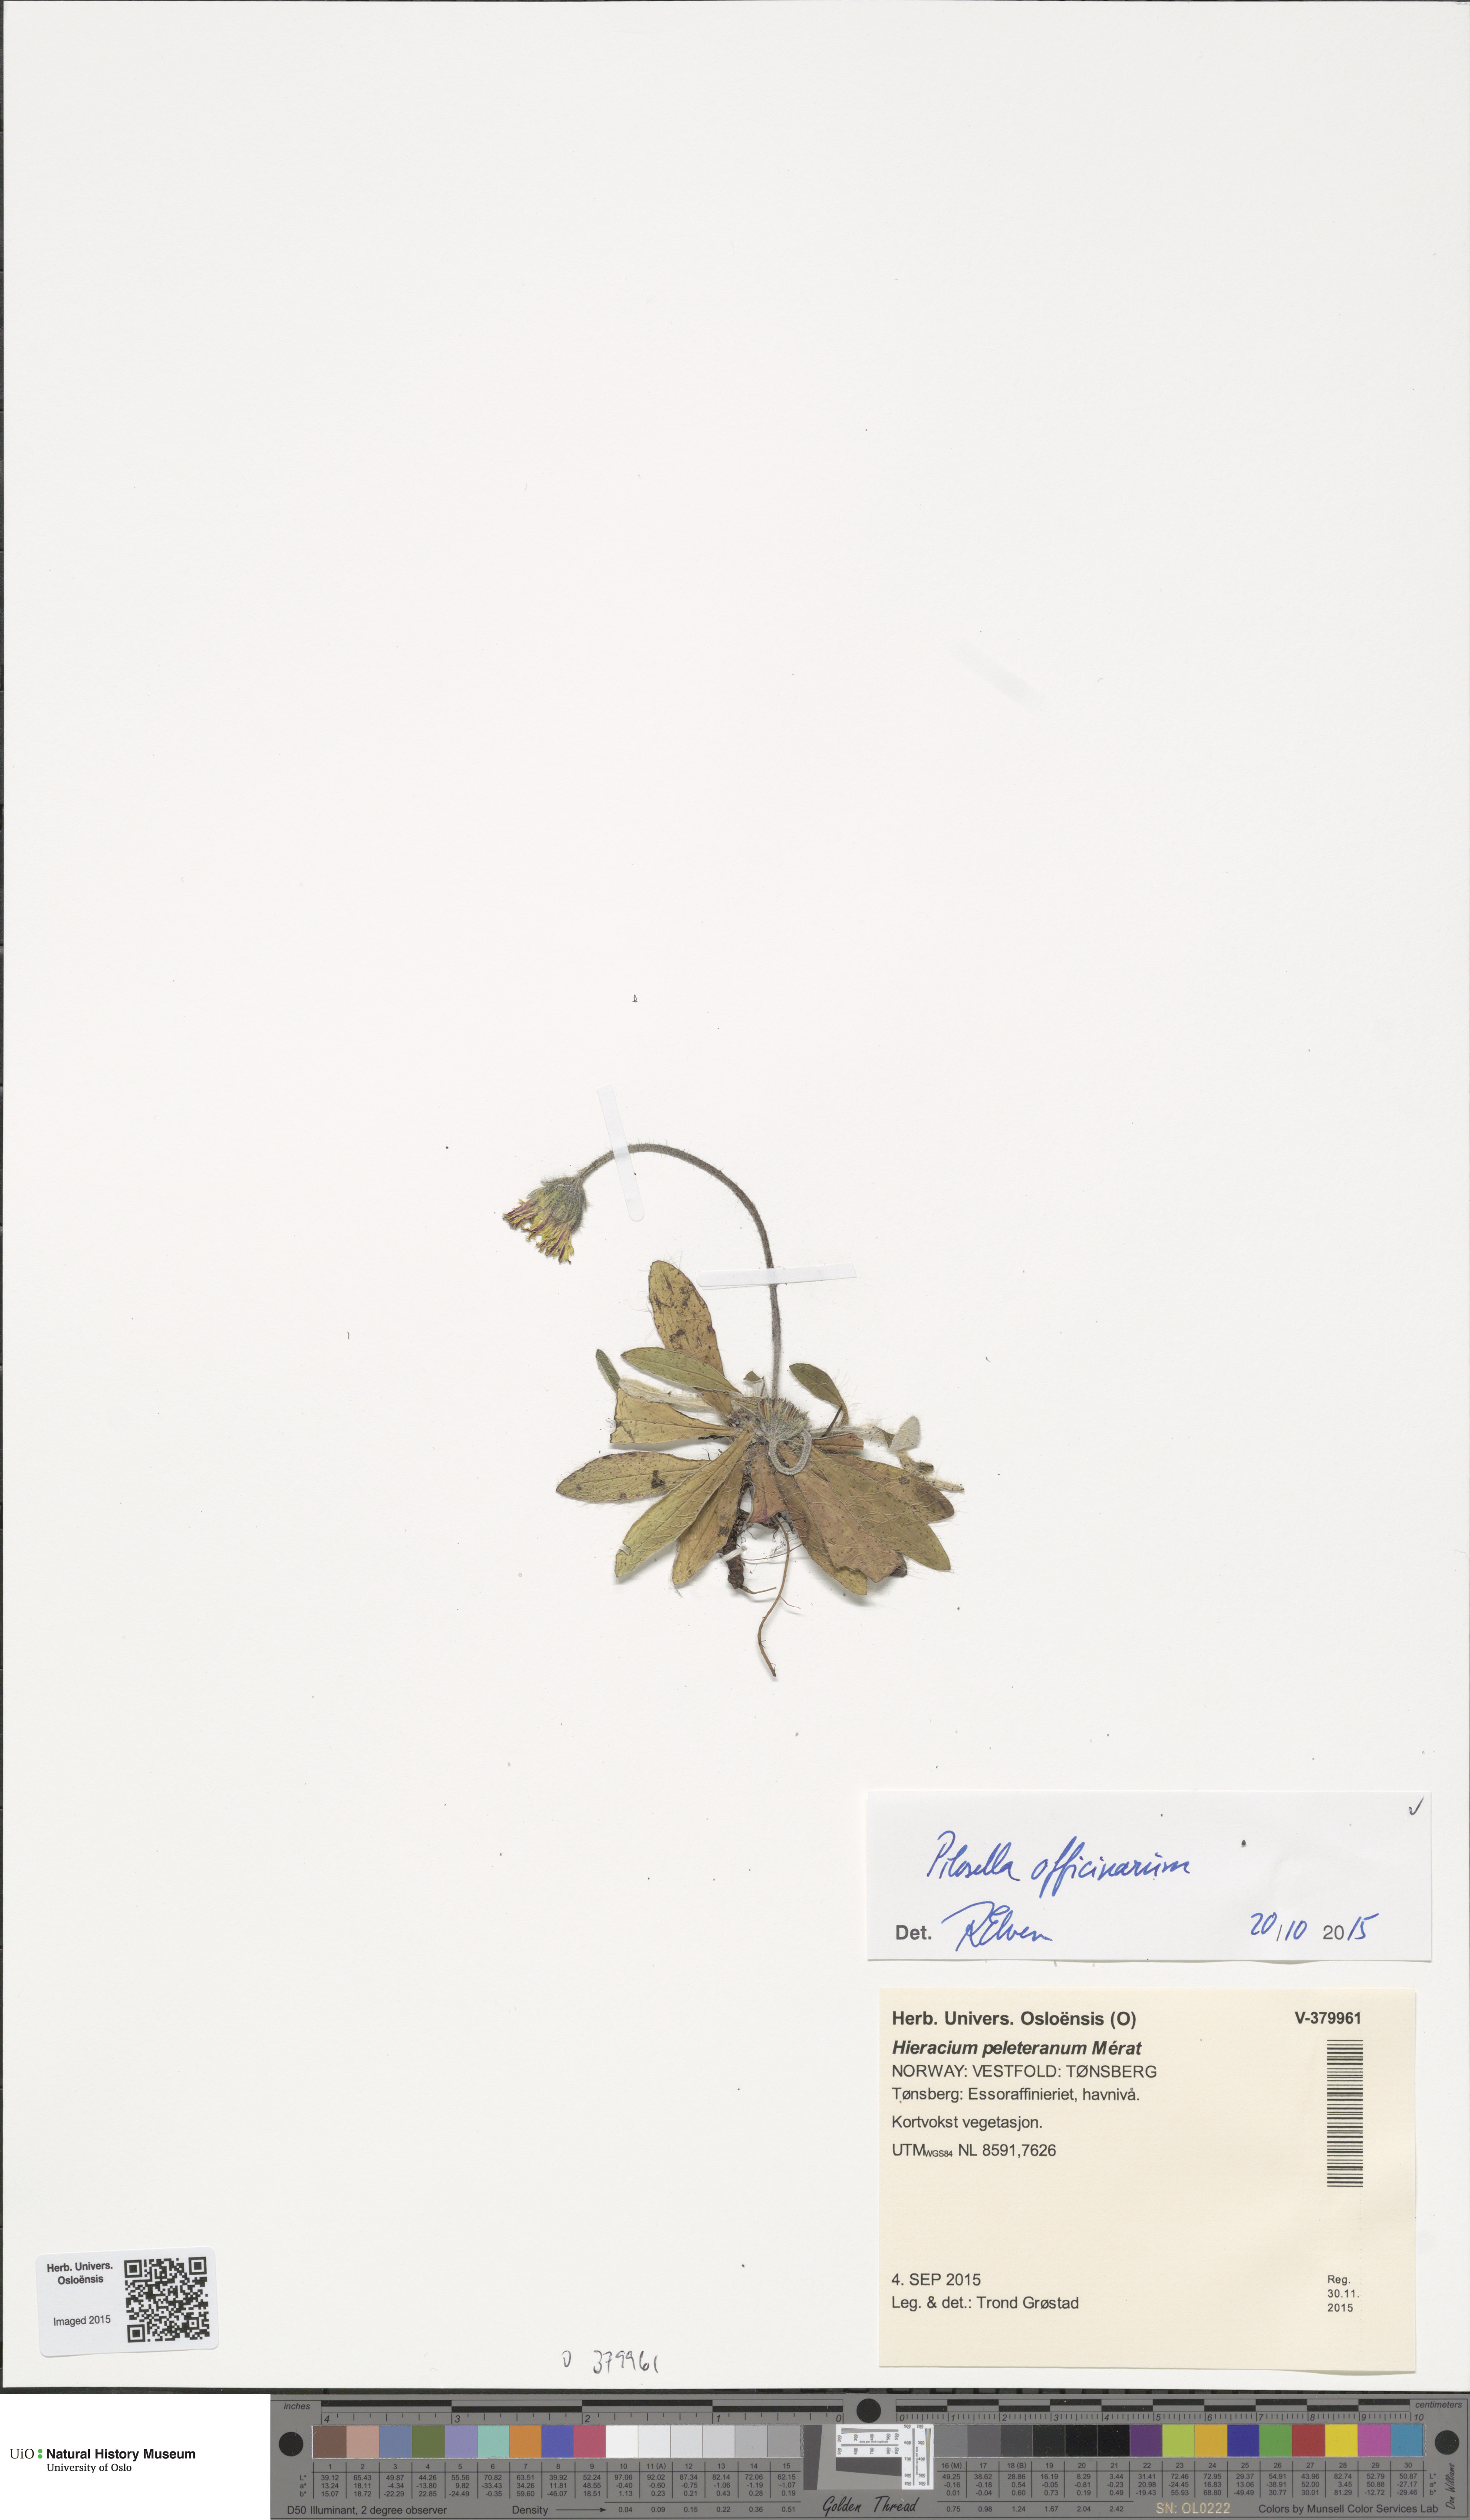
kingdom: Plantae
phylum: Tracheophyta
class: Magnoliopsida
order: Asterales
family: Asteraceae
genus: Pilosella
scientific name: Pilosella officinarum
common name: Mouse-ear hawkweed
